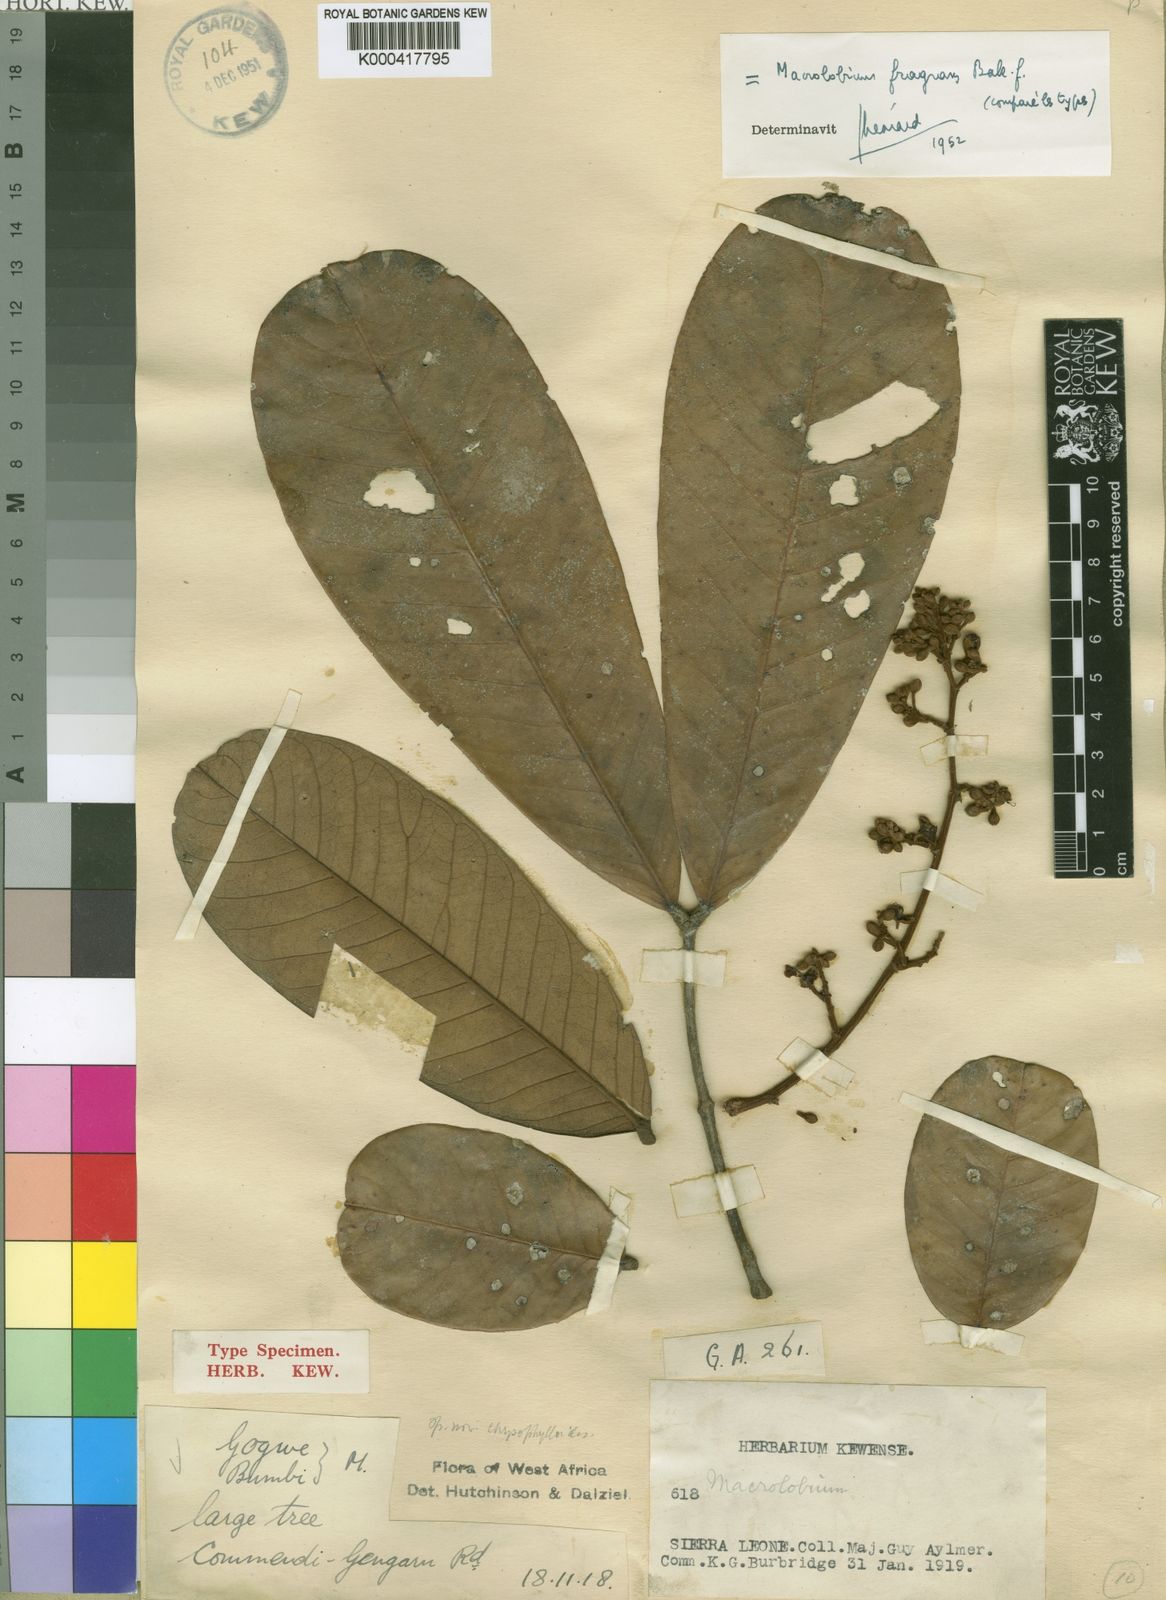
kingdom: Plantae
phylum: Tracheophyta
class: Magnoliopsida
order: Fabales
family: Fabaceae
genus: Anthonotha
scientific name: Anthonotha fragrans
